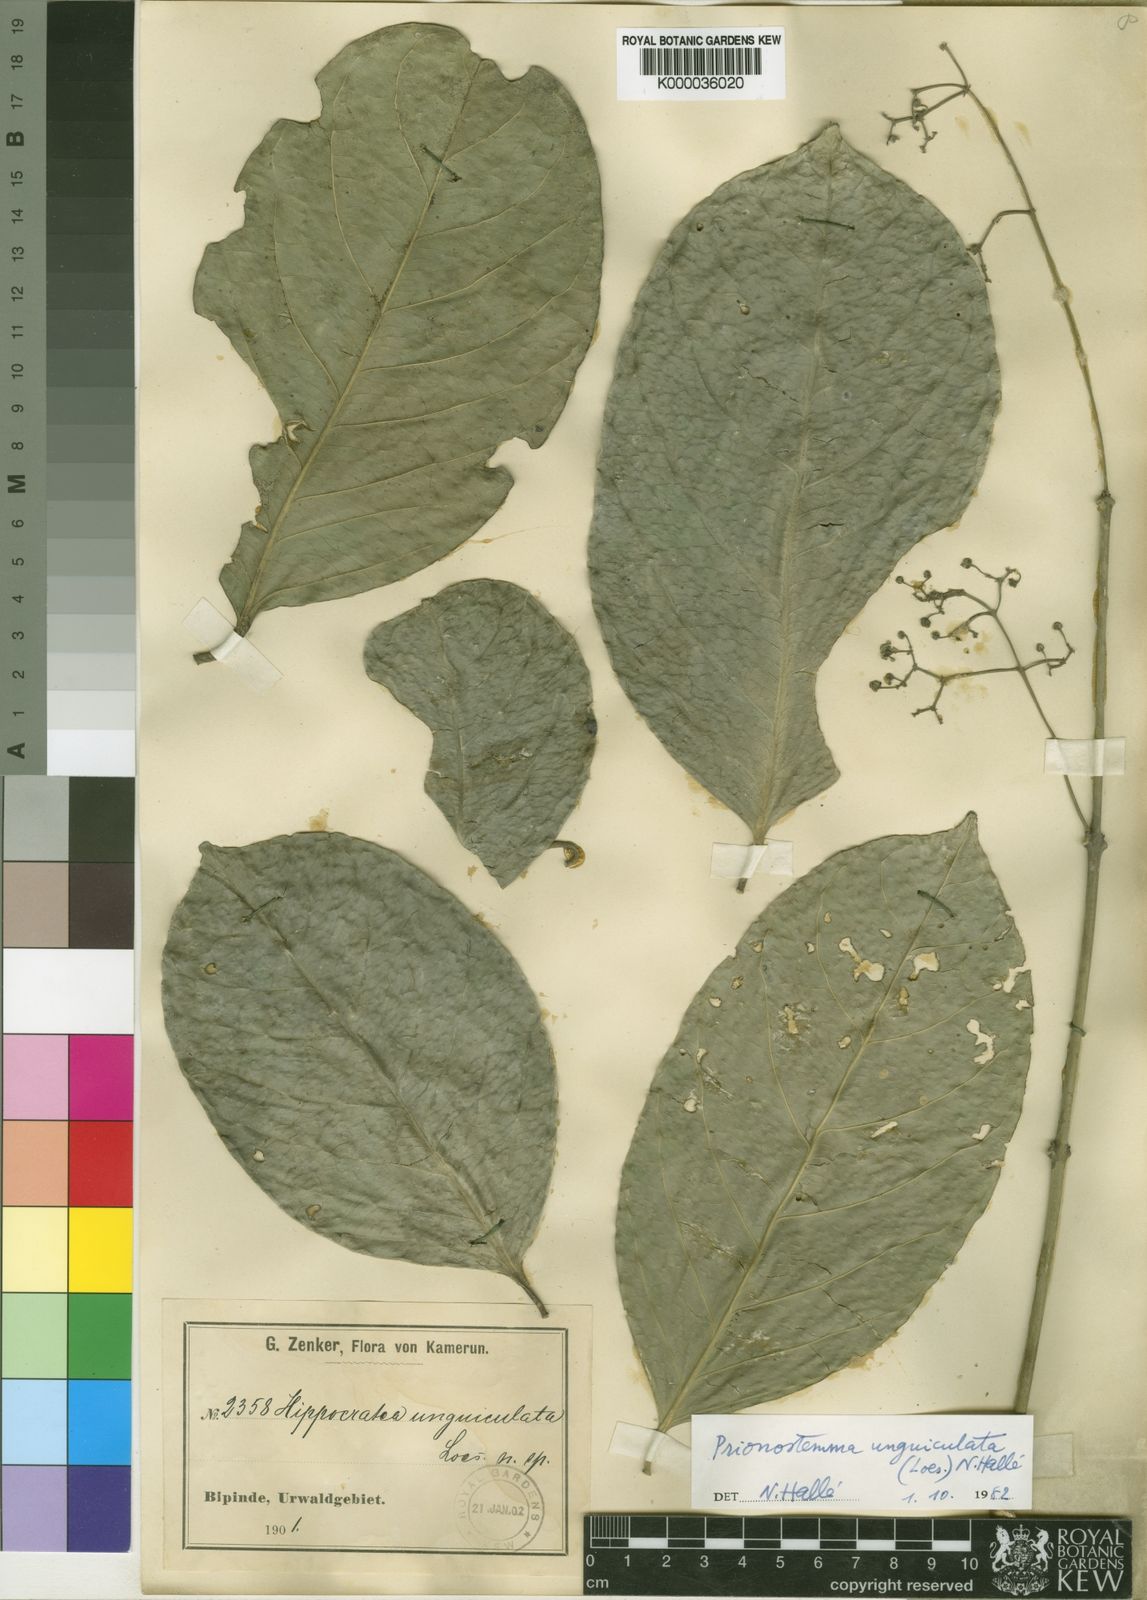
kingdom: Plantae
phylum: Tracheophyta
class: Magnoliopsida
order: Celastrales
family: Celastraceae
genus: Prionostemma
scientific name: Prionostemma
